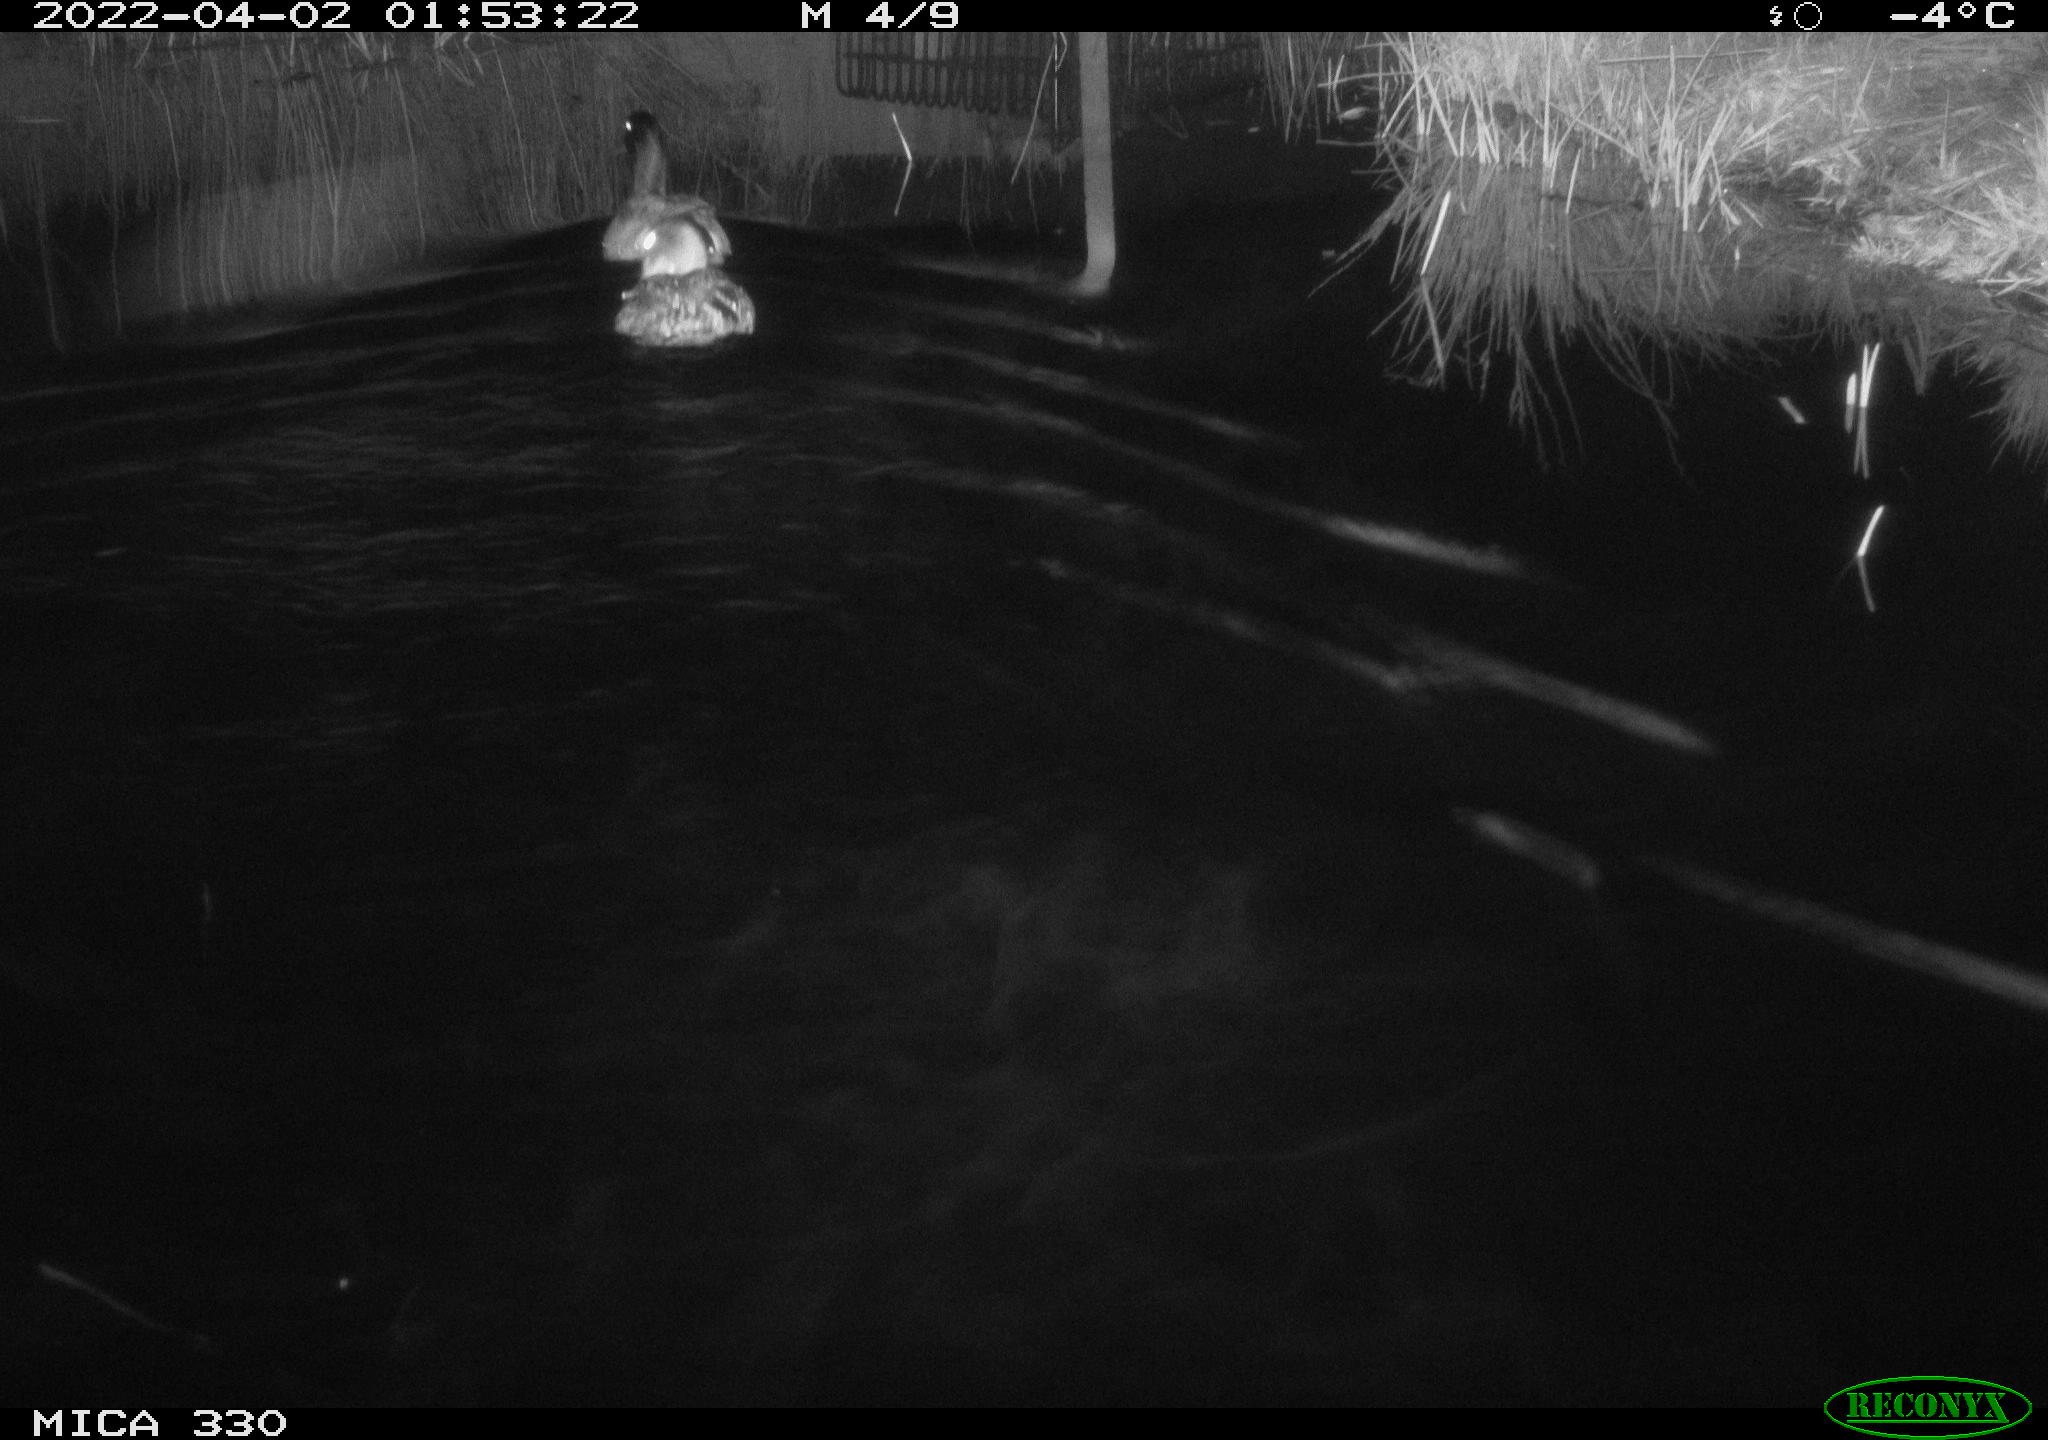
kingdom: Animalia
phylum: Chordata
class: Aves
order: Anseriformes
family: Anatidae
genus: Anas
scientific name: Anas platyrhynchos
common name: Mallard
